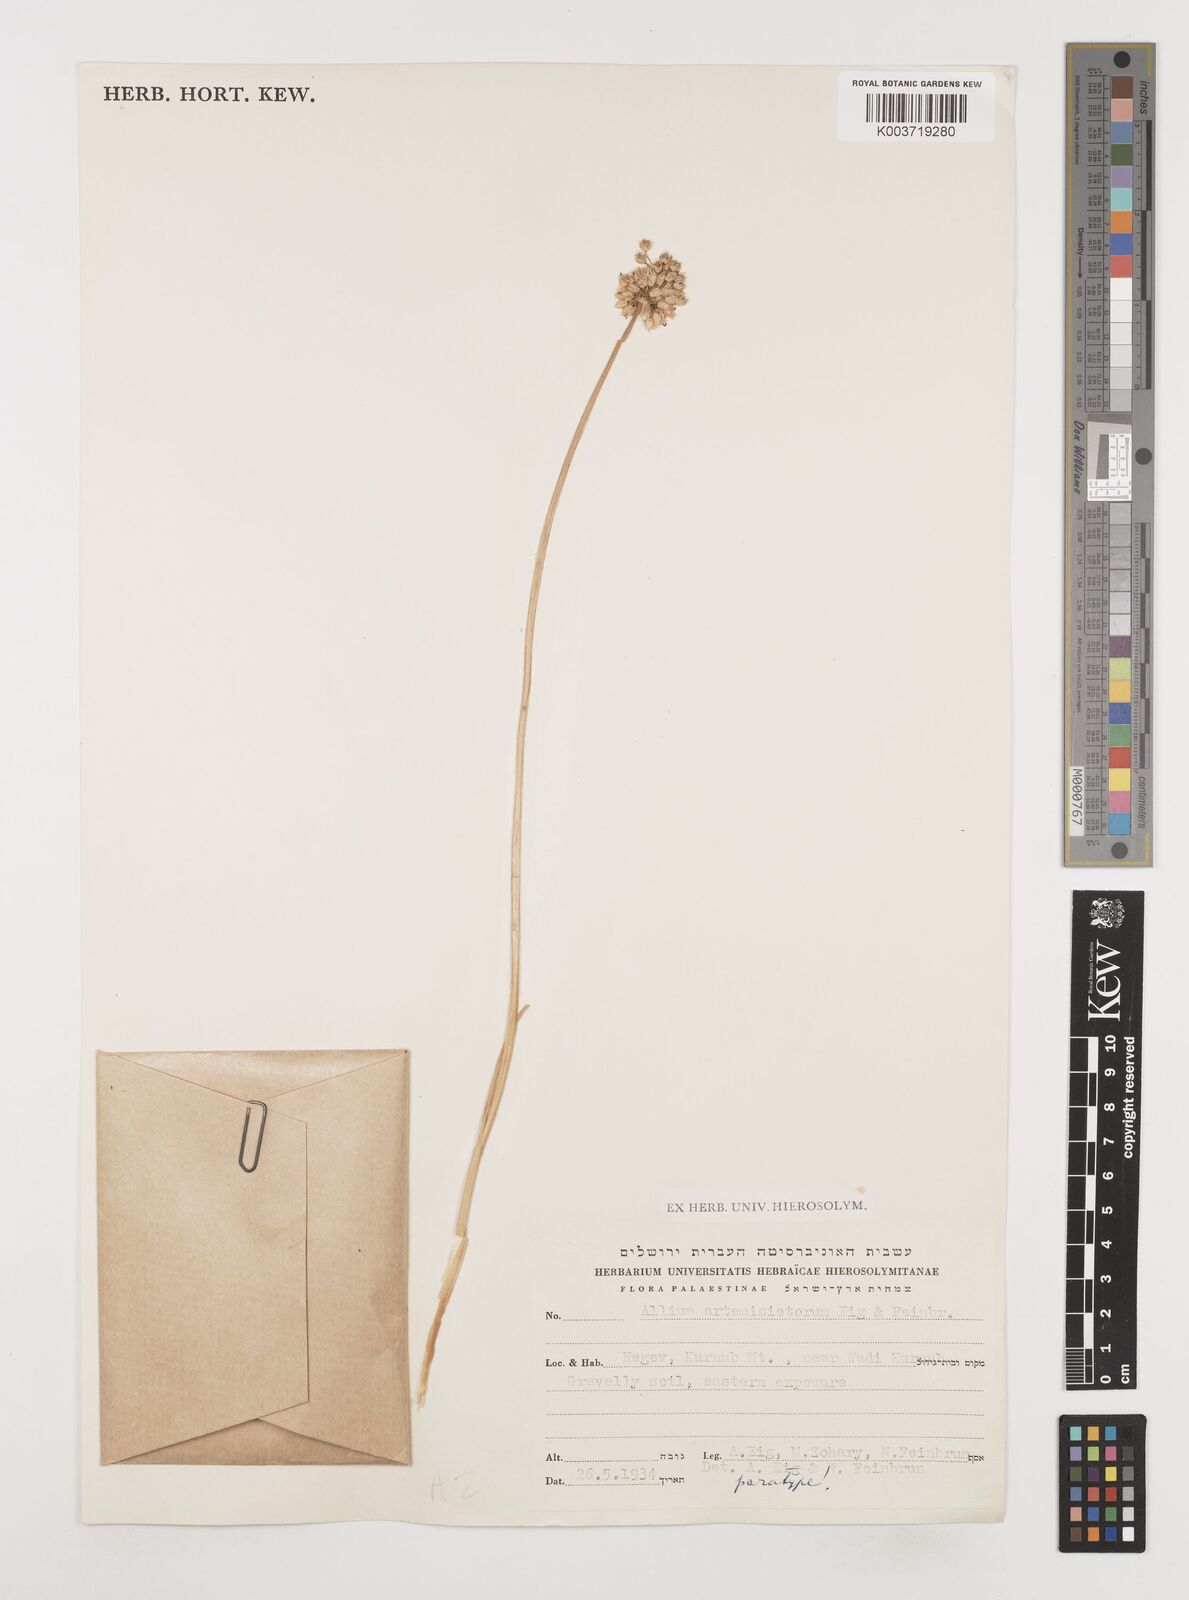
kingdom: Plantae
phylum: Tracheophyta
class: Liliopsida
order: Asparagales
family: Amaryllidaceae
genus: Allium
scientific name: Allium artemisietorum
